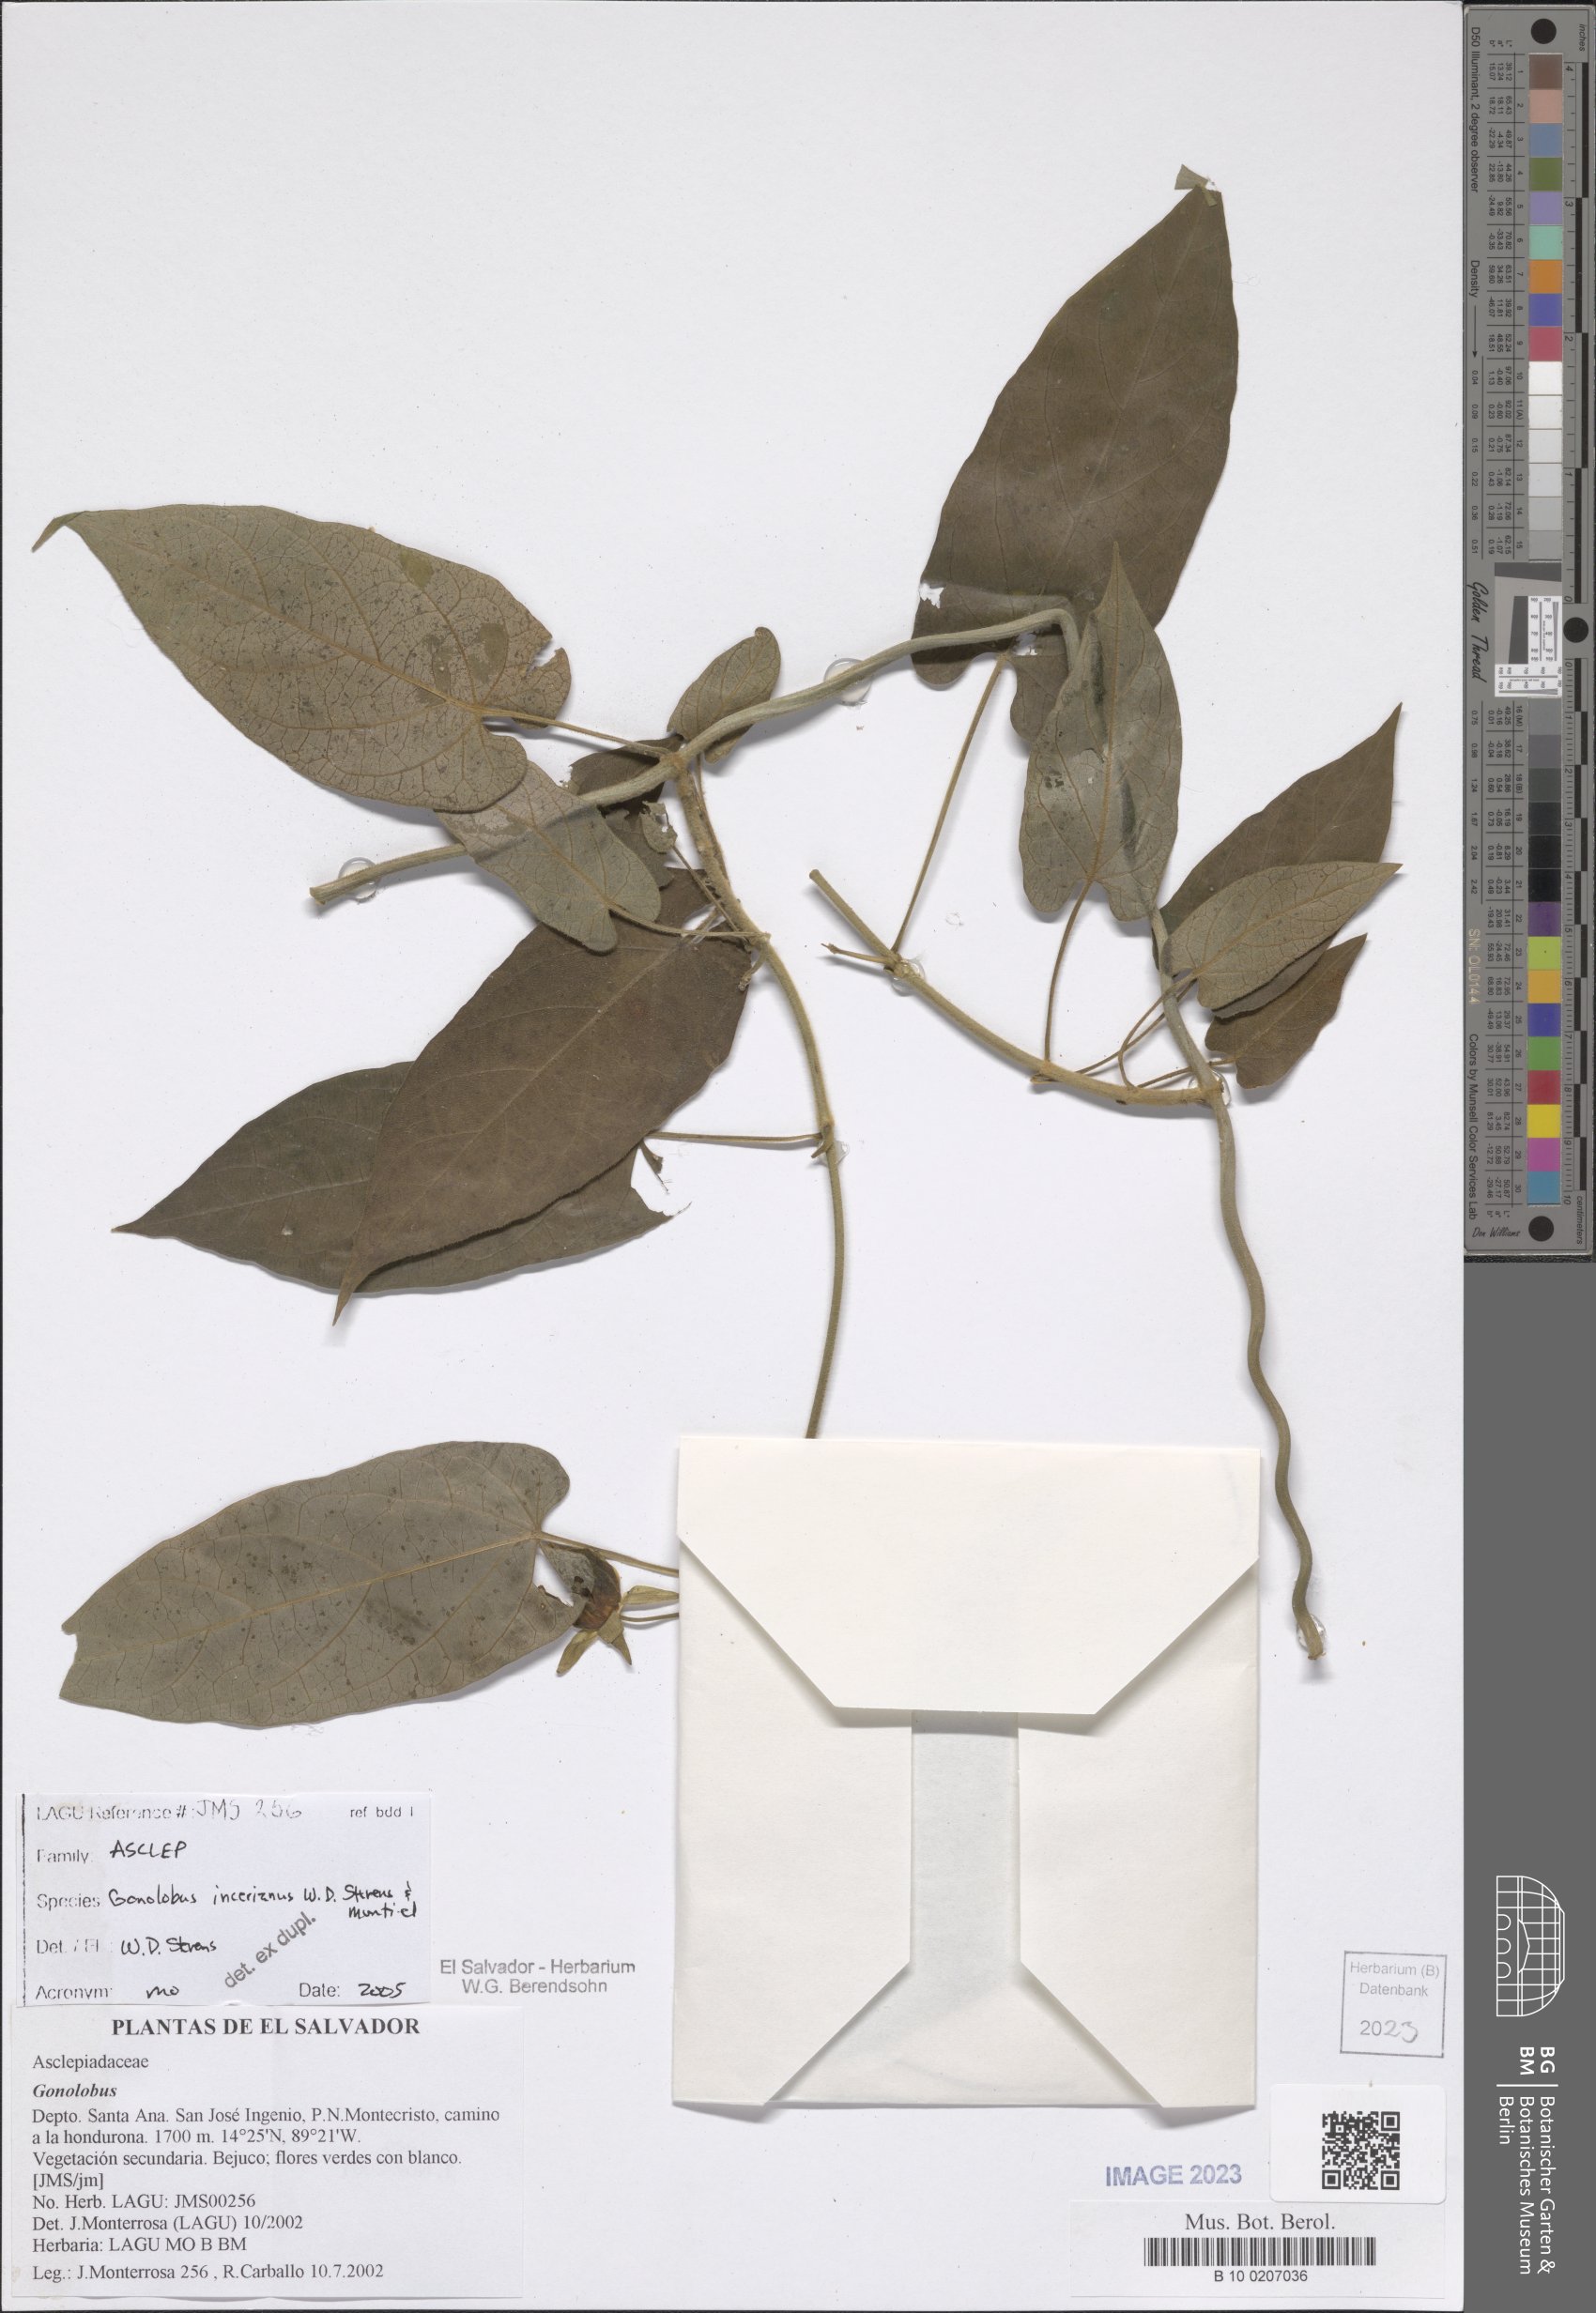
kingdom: Plantae
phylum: Tracheophyta
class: Magnoliopsida
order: Gentianales
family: Apocynaceae
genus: Gonolobus
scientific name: Gonolobus incerianus
